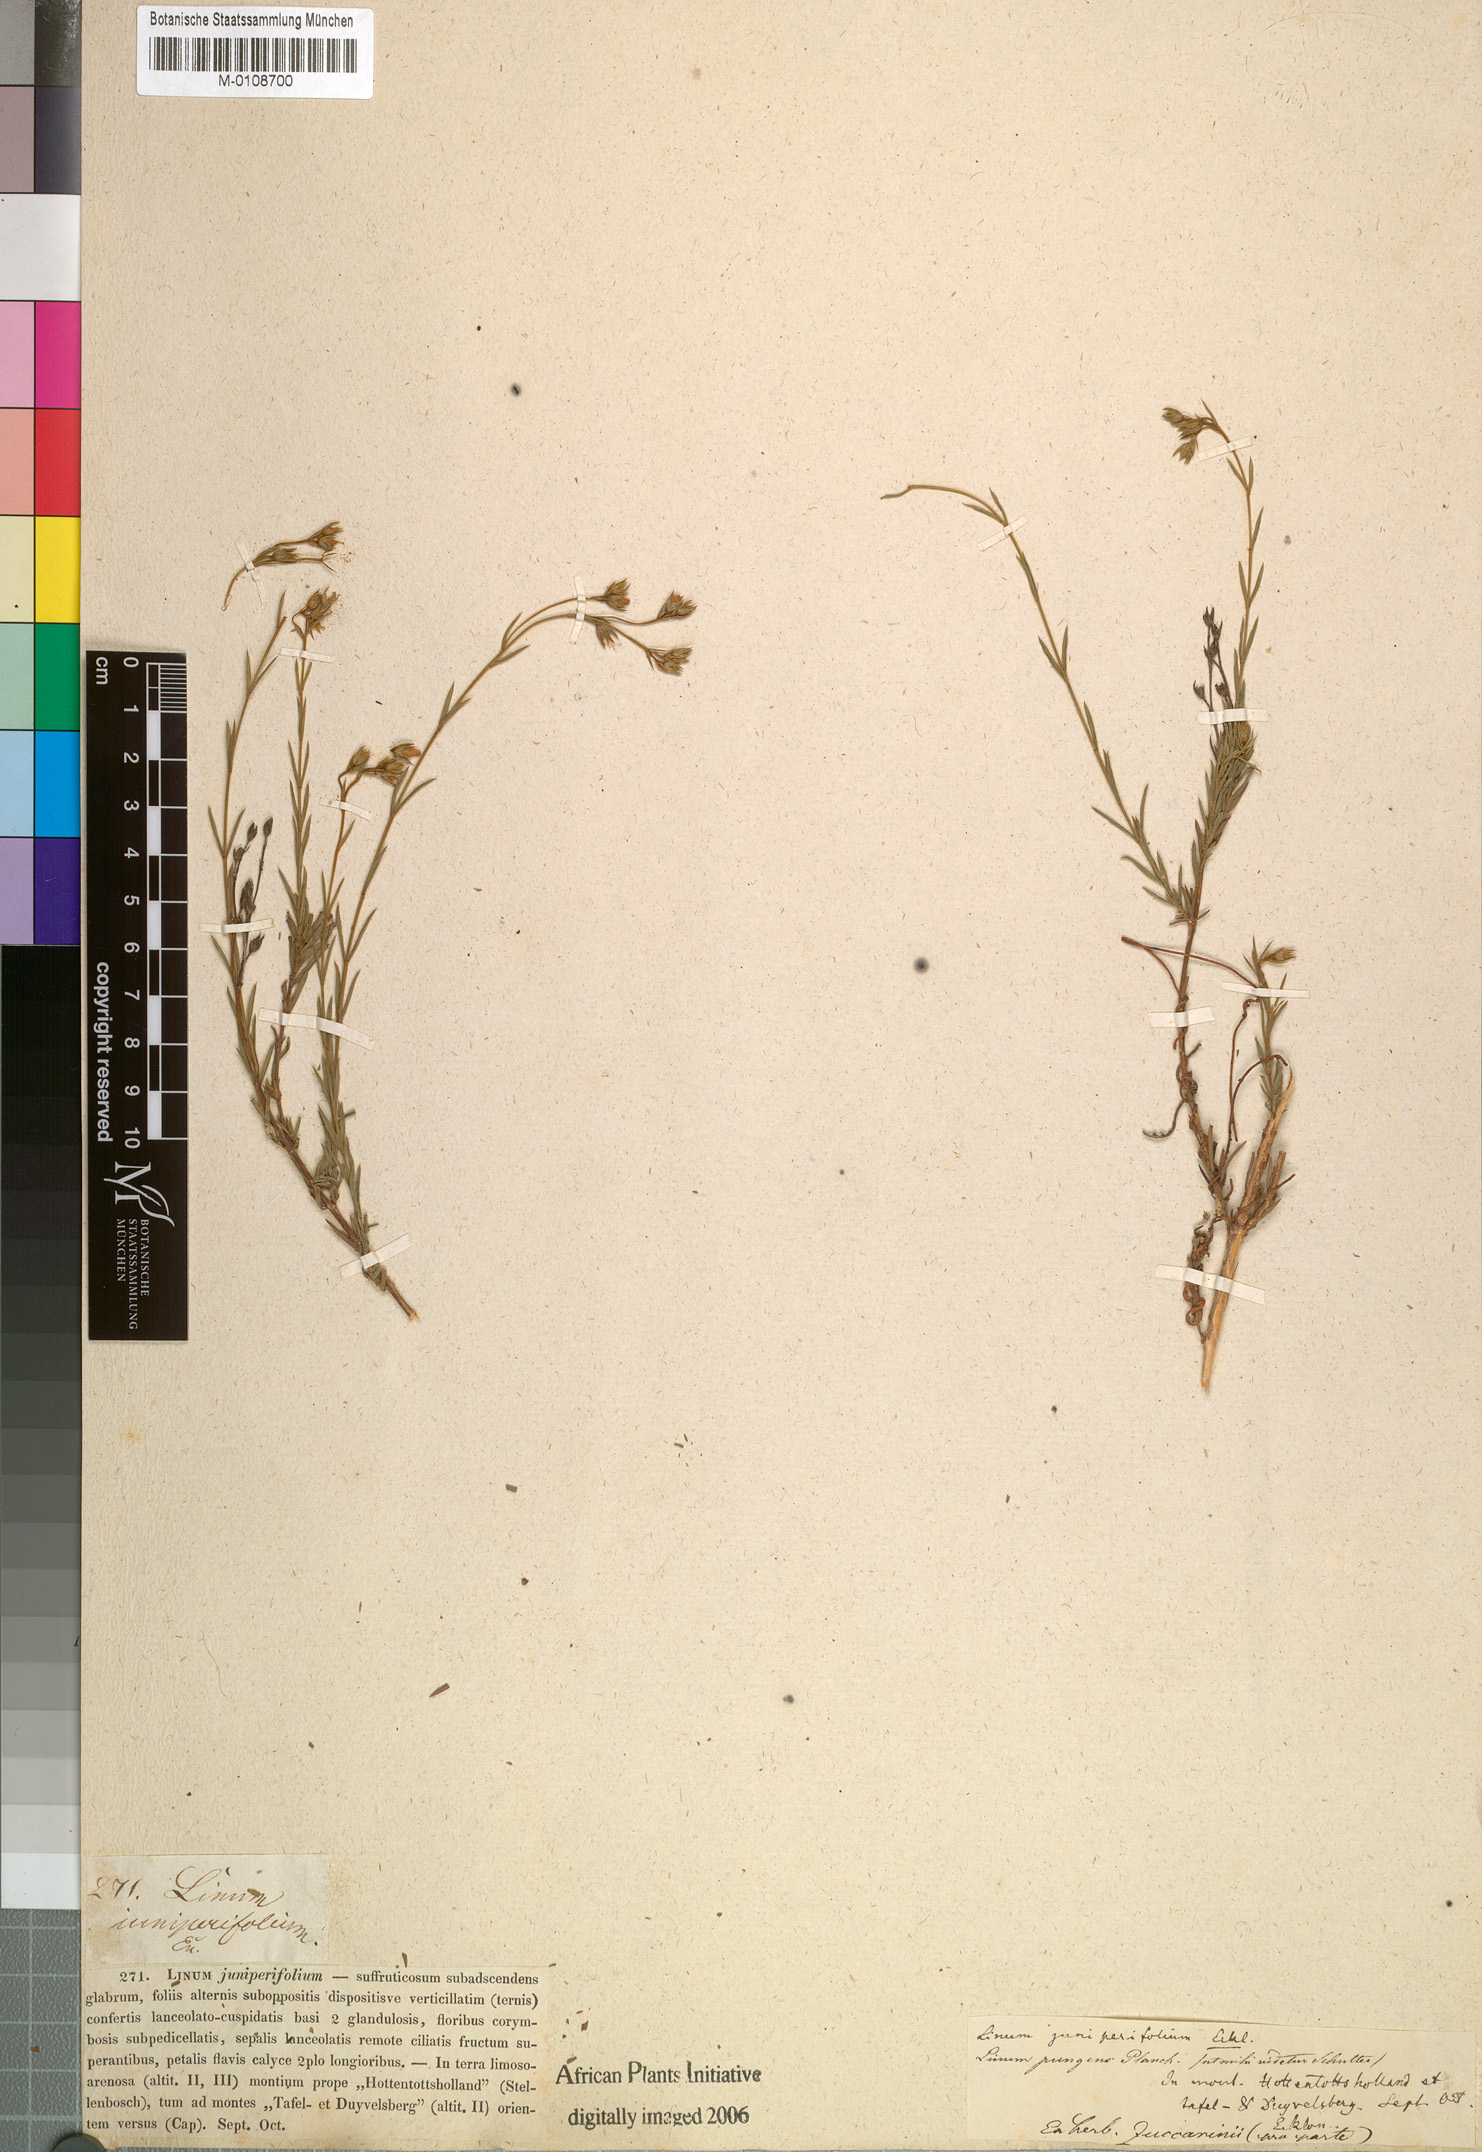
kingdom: Plantae
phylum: Tracheophyta
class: Magnoliopsida
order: Malpighiales
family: Linaceae
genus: Linum
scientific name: Linum africanum
